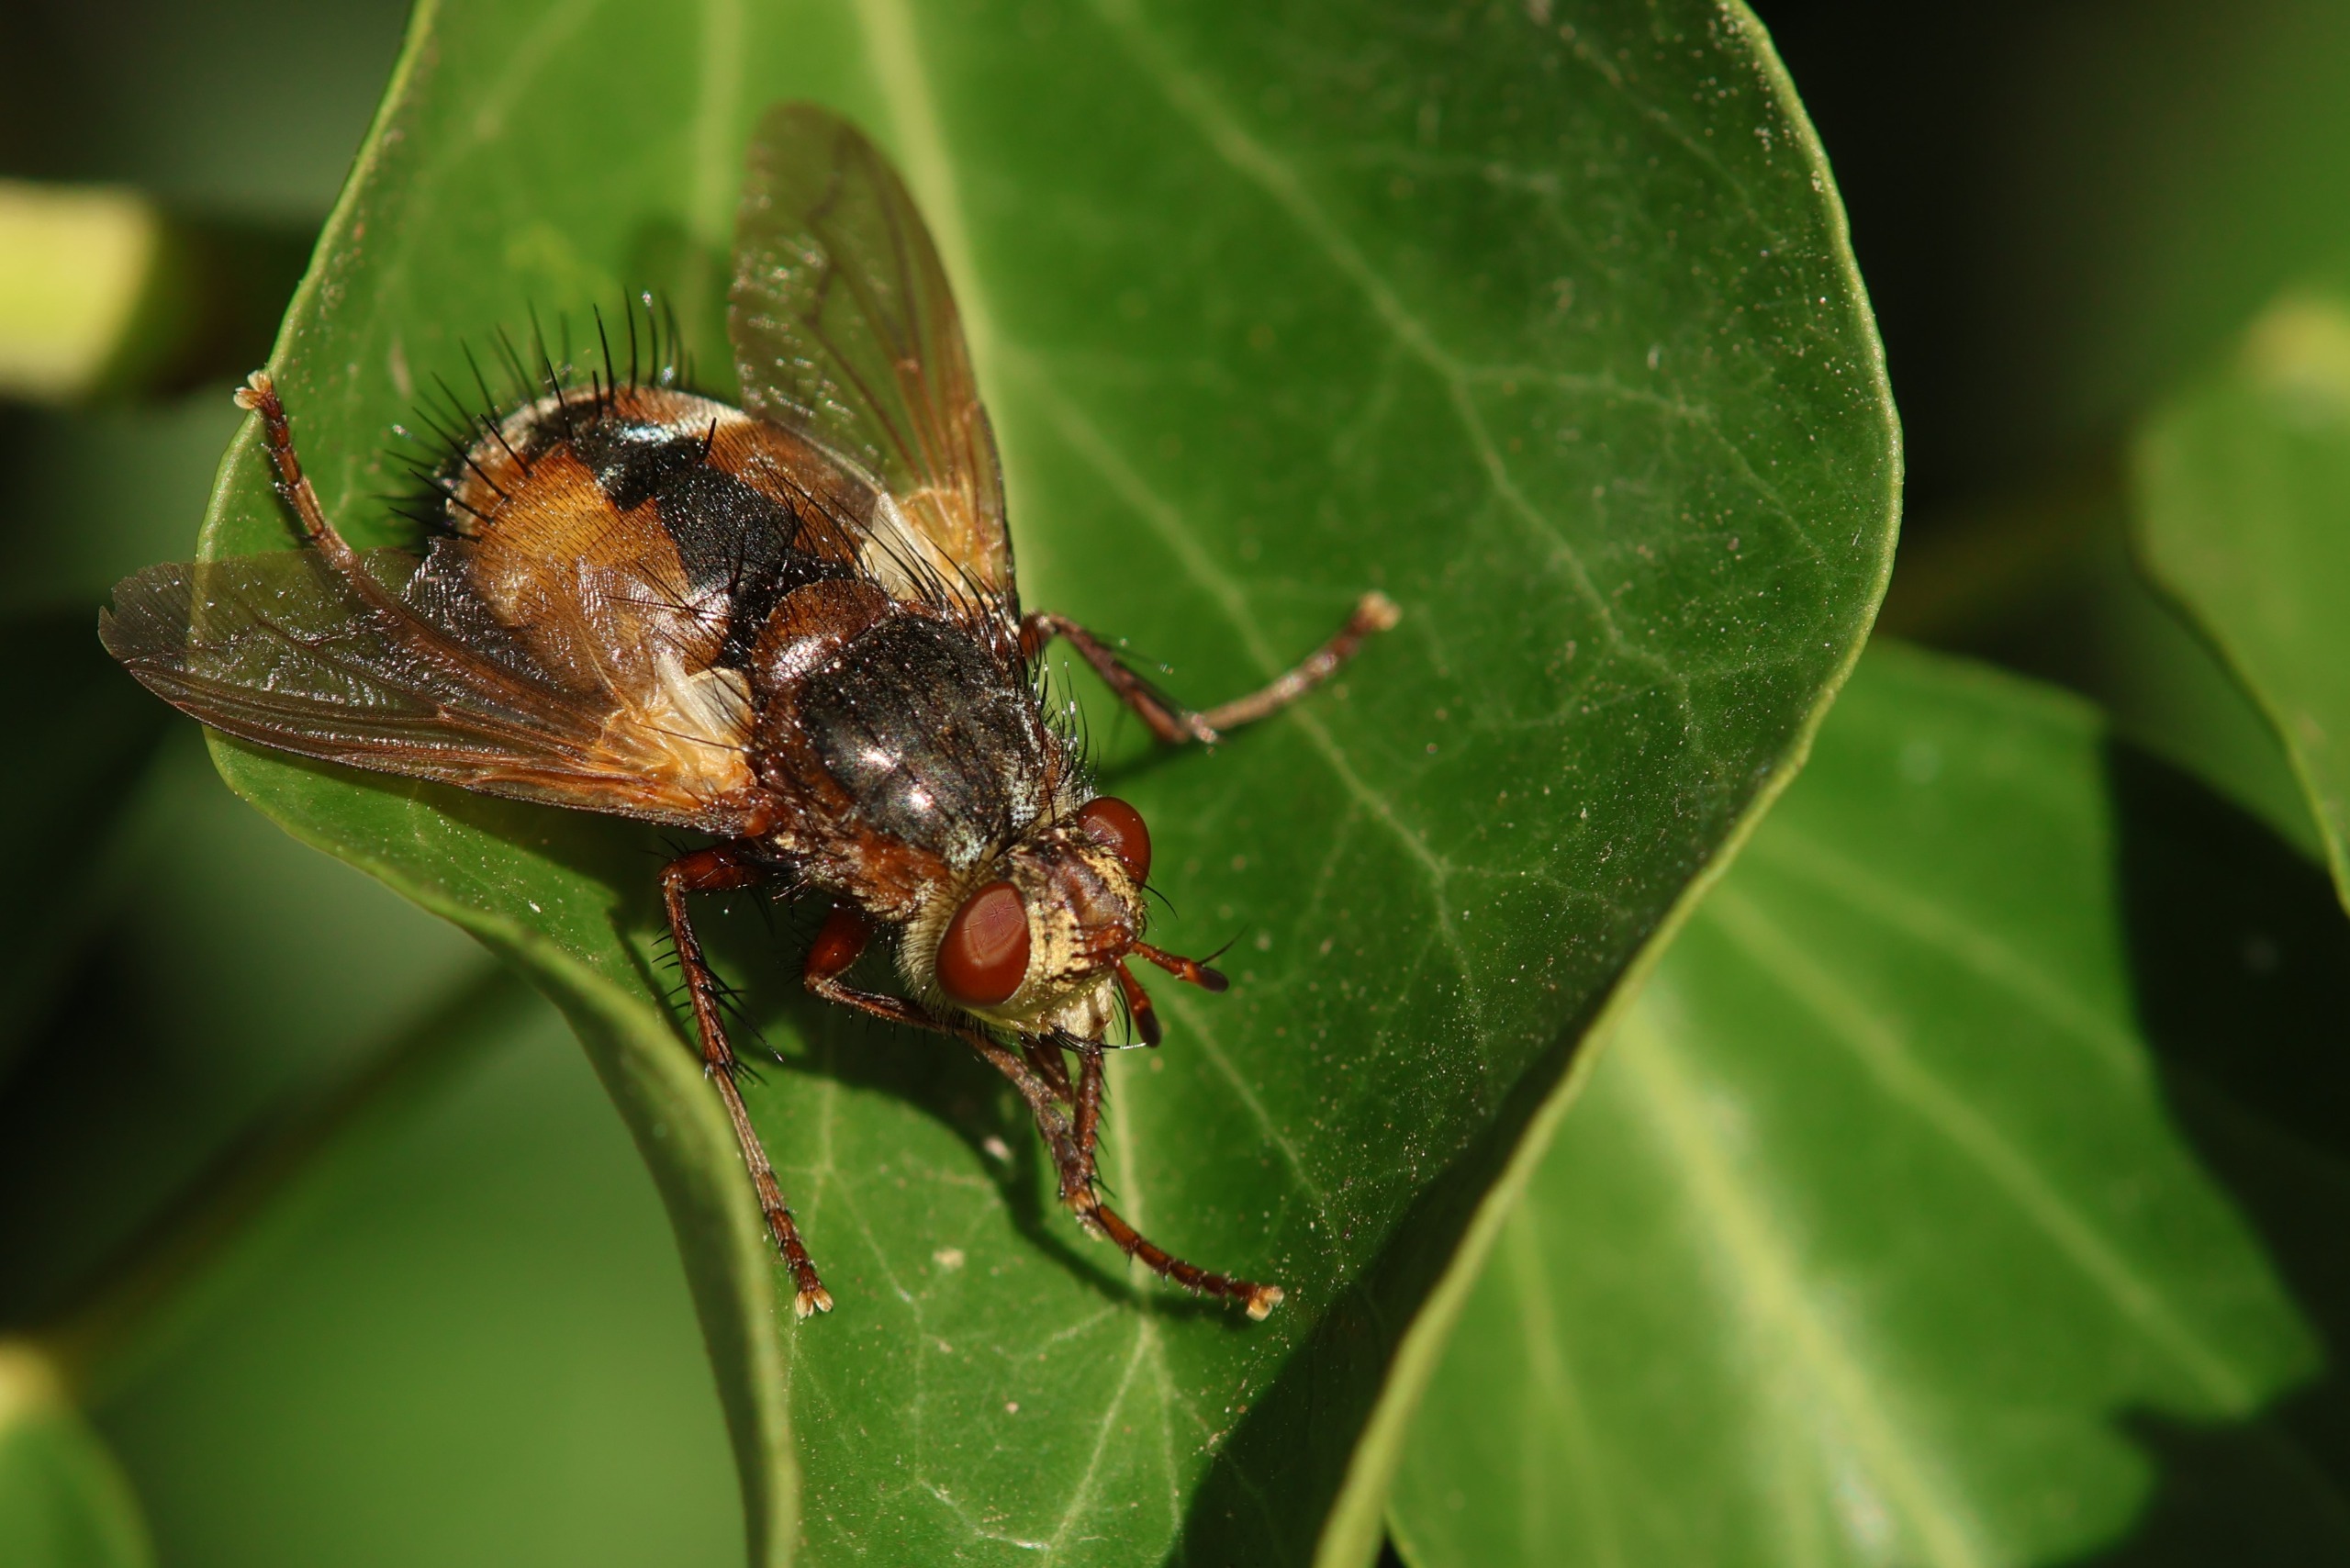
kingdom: Animalia
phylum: Arthropoda
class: Insecta
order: Diptera
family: Tachinidae
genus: Tachina
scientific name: Tachina fera
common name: Mellemfluen oskar
